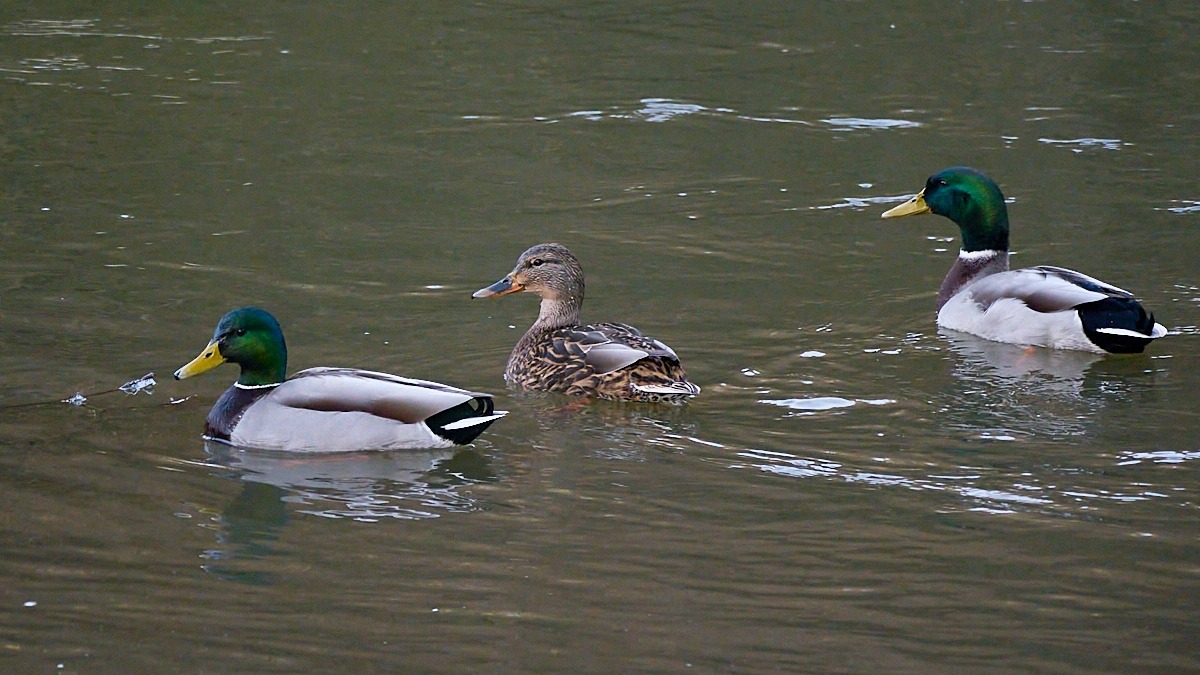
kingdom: Animalia
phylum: Chordata
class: Aves
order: Anseriformes
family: Anatidae
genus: Anas
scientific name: Anas platyrhynchos
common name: Gråand
